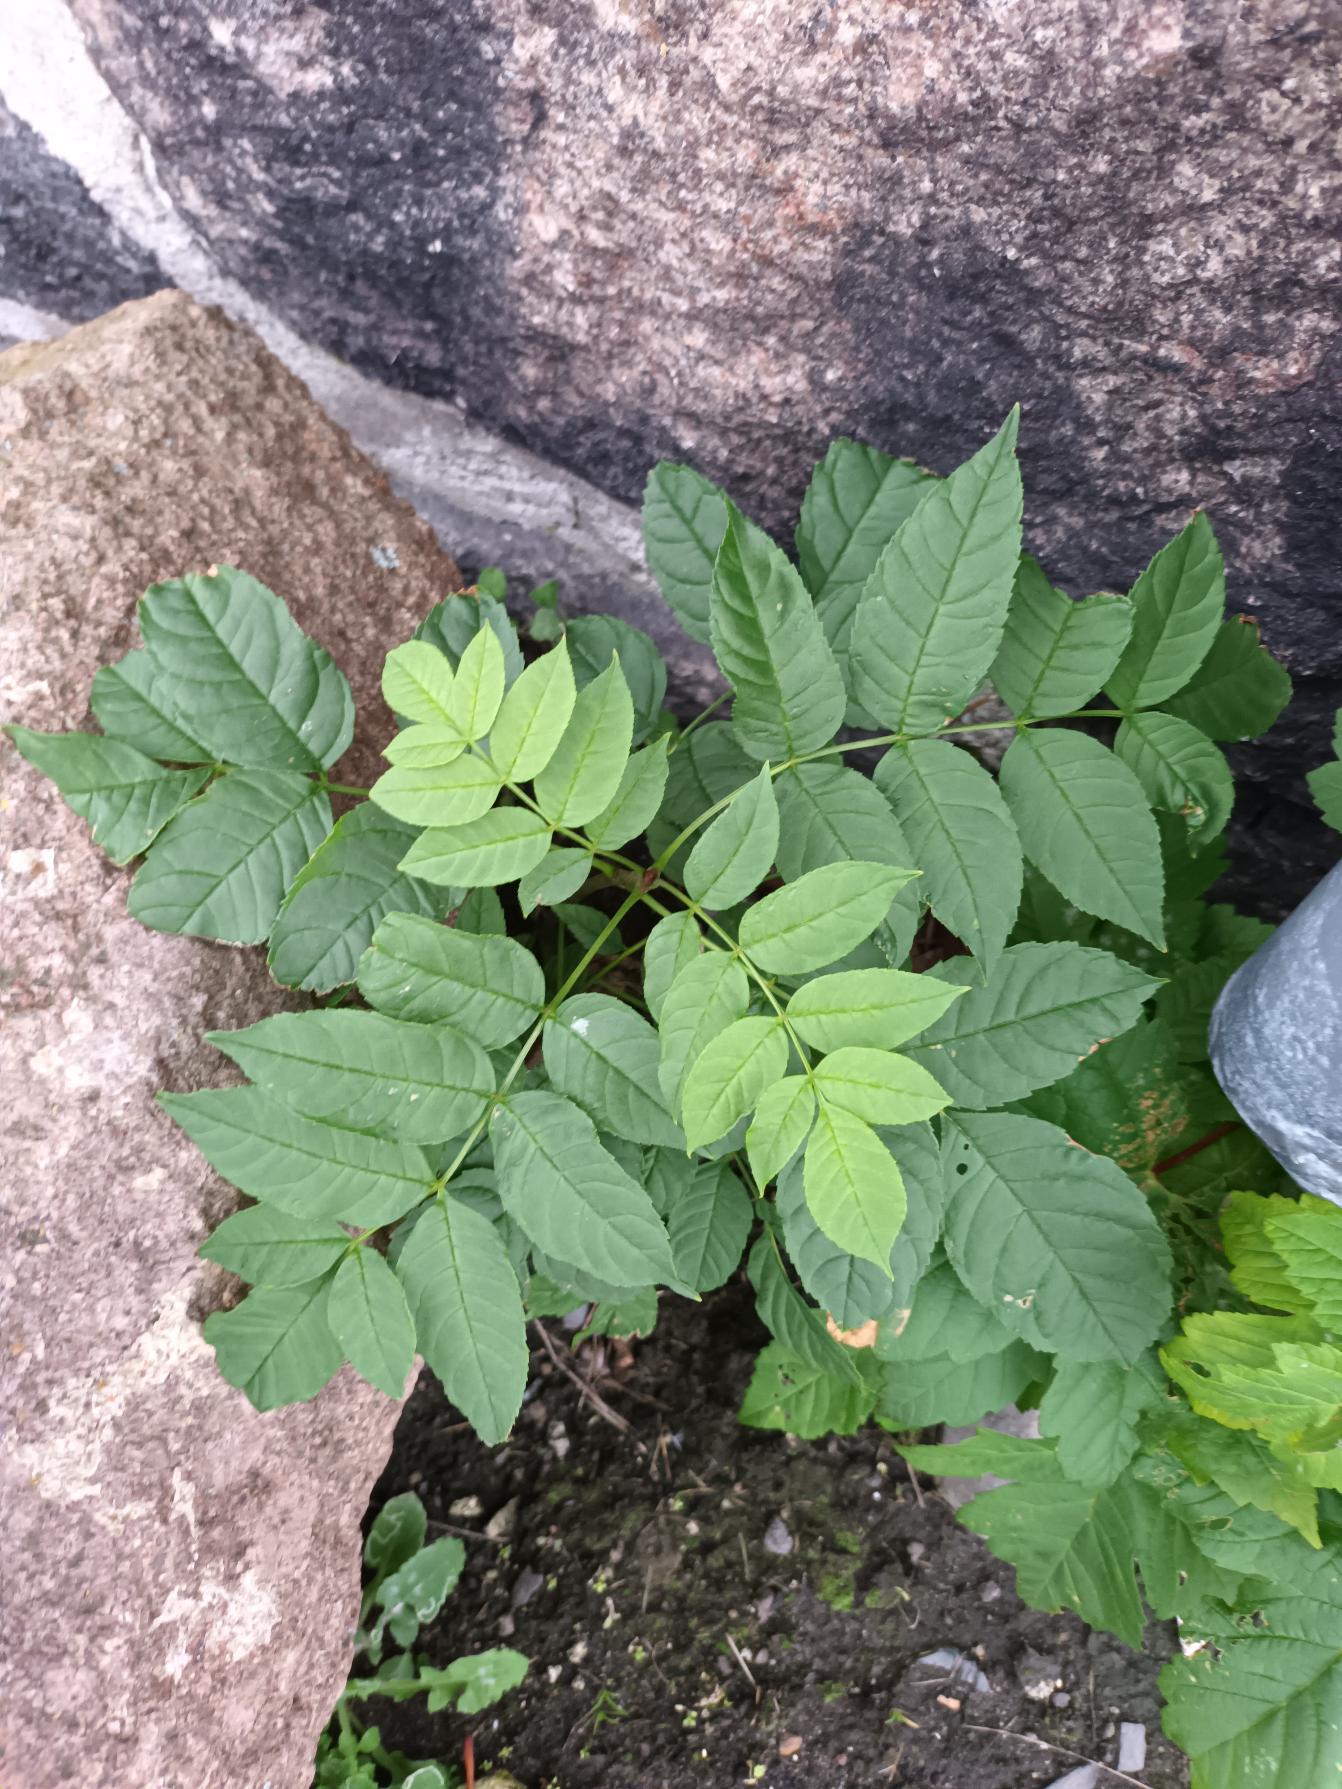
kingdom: Plantae
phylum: Tracheophyta
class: Magnoliopsida
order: Lamiales
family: Oleaceae
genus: Fraxinus
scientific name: Fraxinus excelsior
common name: Ask
